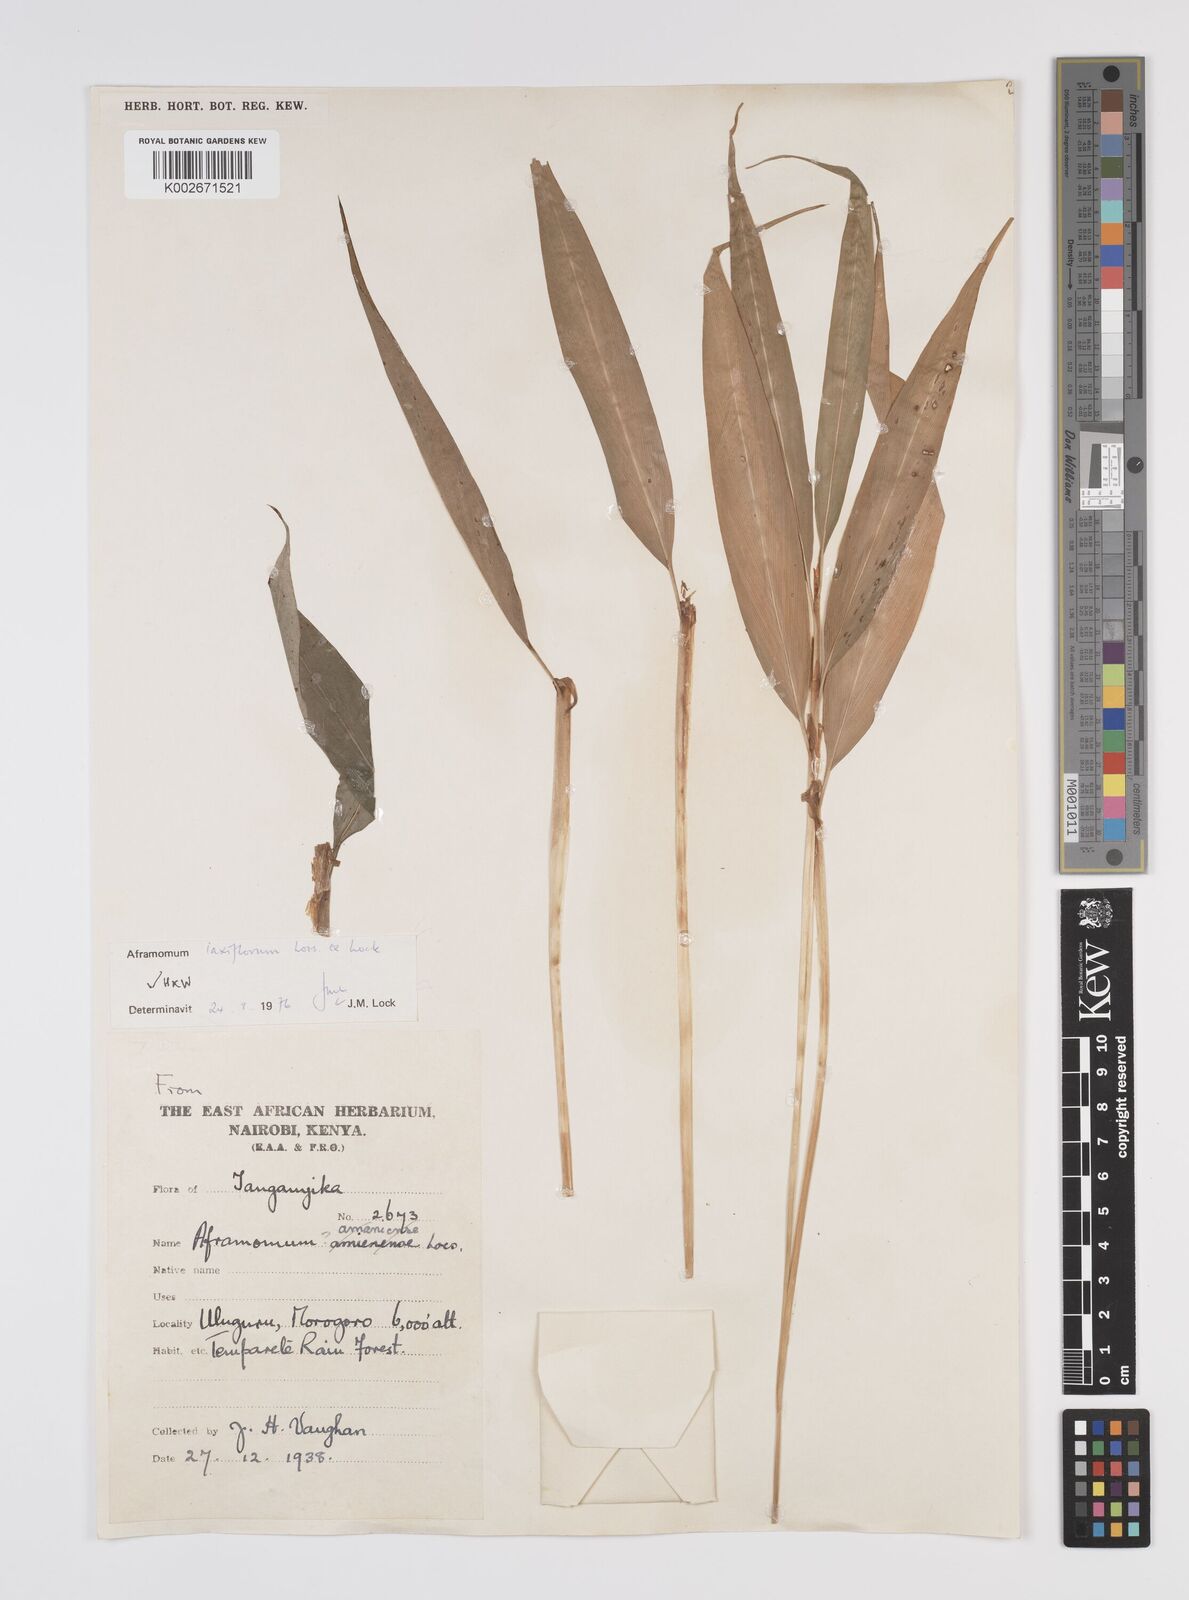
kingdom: Plantae
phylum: Tracheophyta
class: Liliopsida
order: Zingiberales
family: Zingiberaceae
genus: Aframomum
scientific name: Aframomum laxiflorum
